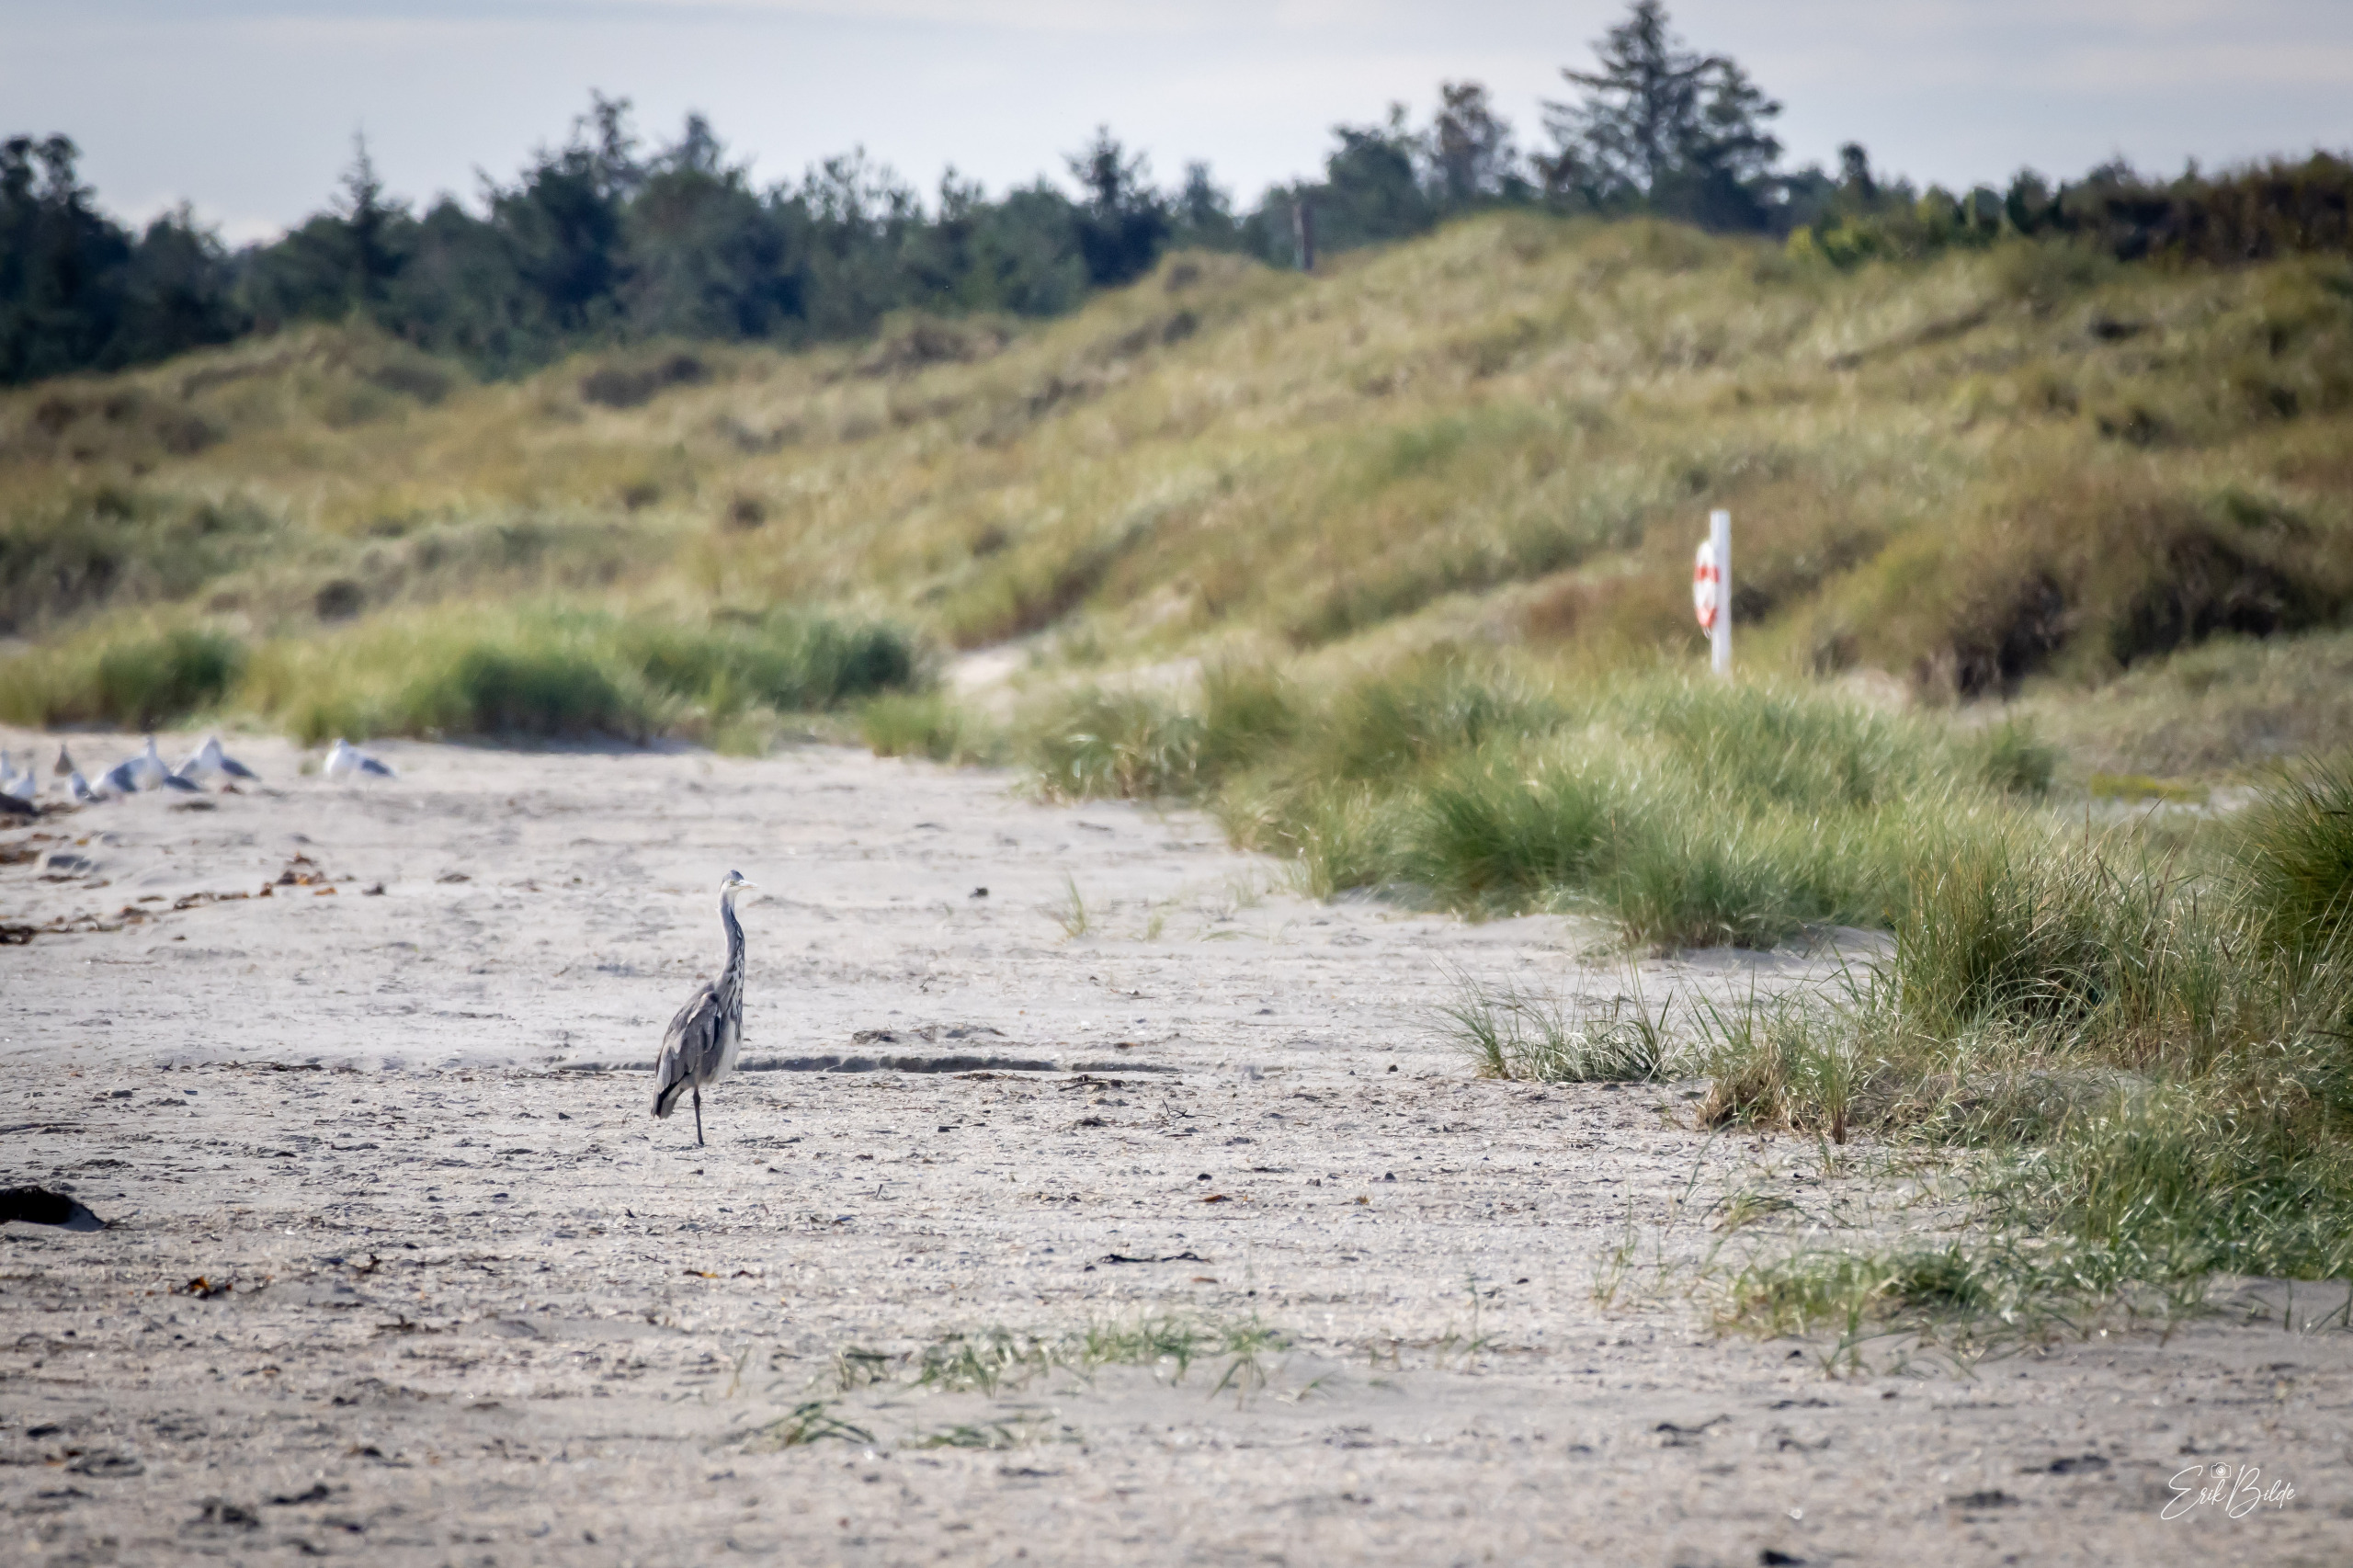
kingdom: Animalia
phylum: Chordata
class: Aves
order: Pelecaniformes
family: Ardeidae
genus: Ardea
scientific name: Ardea cinerea
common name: Fiskehejre
